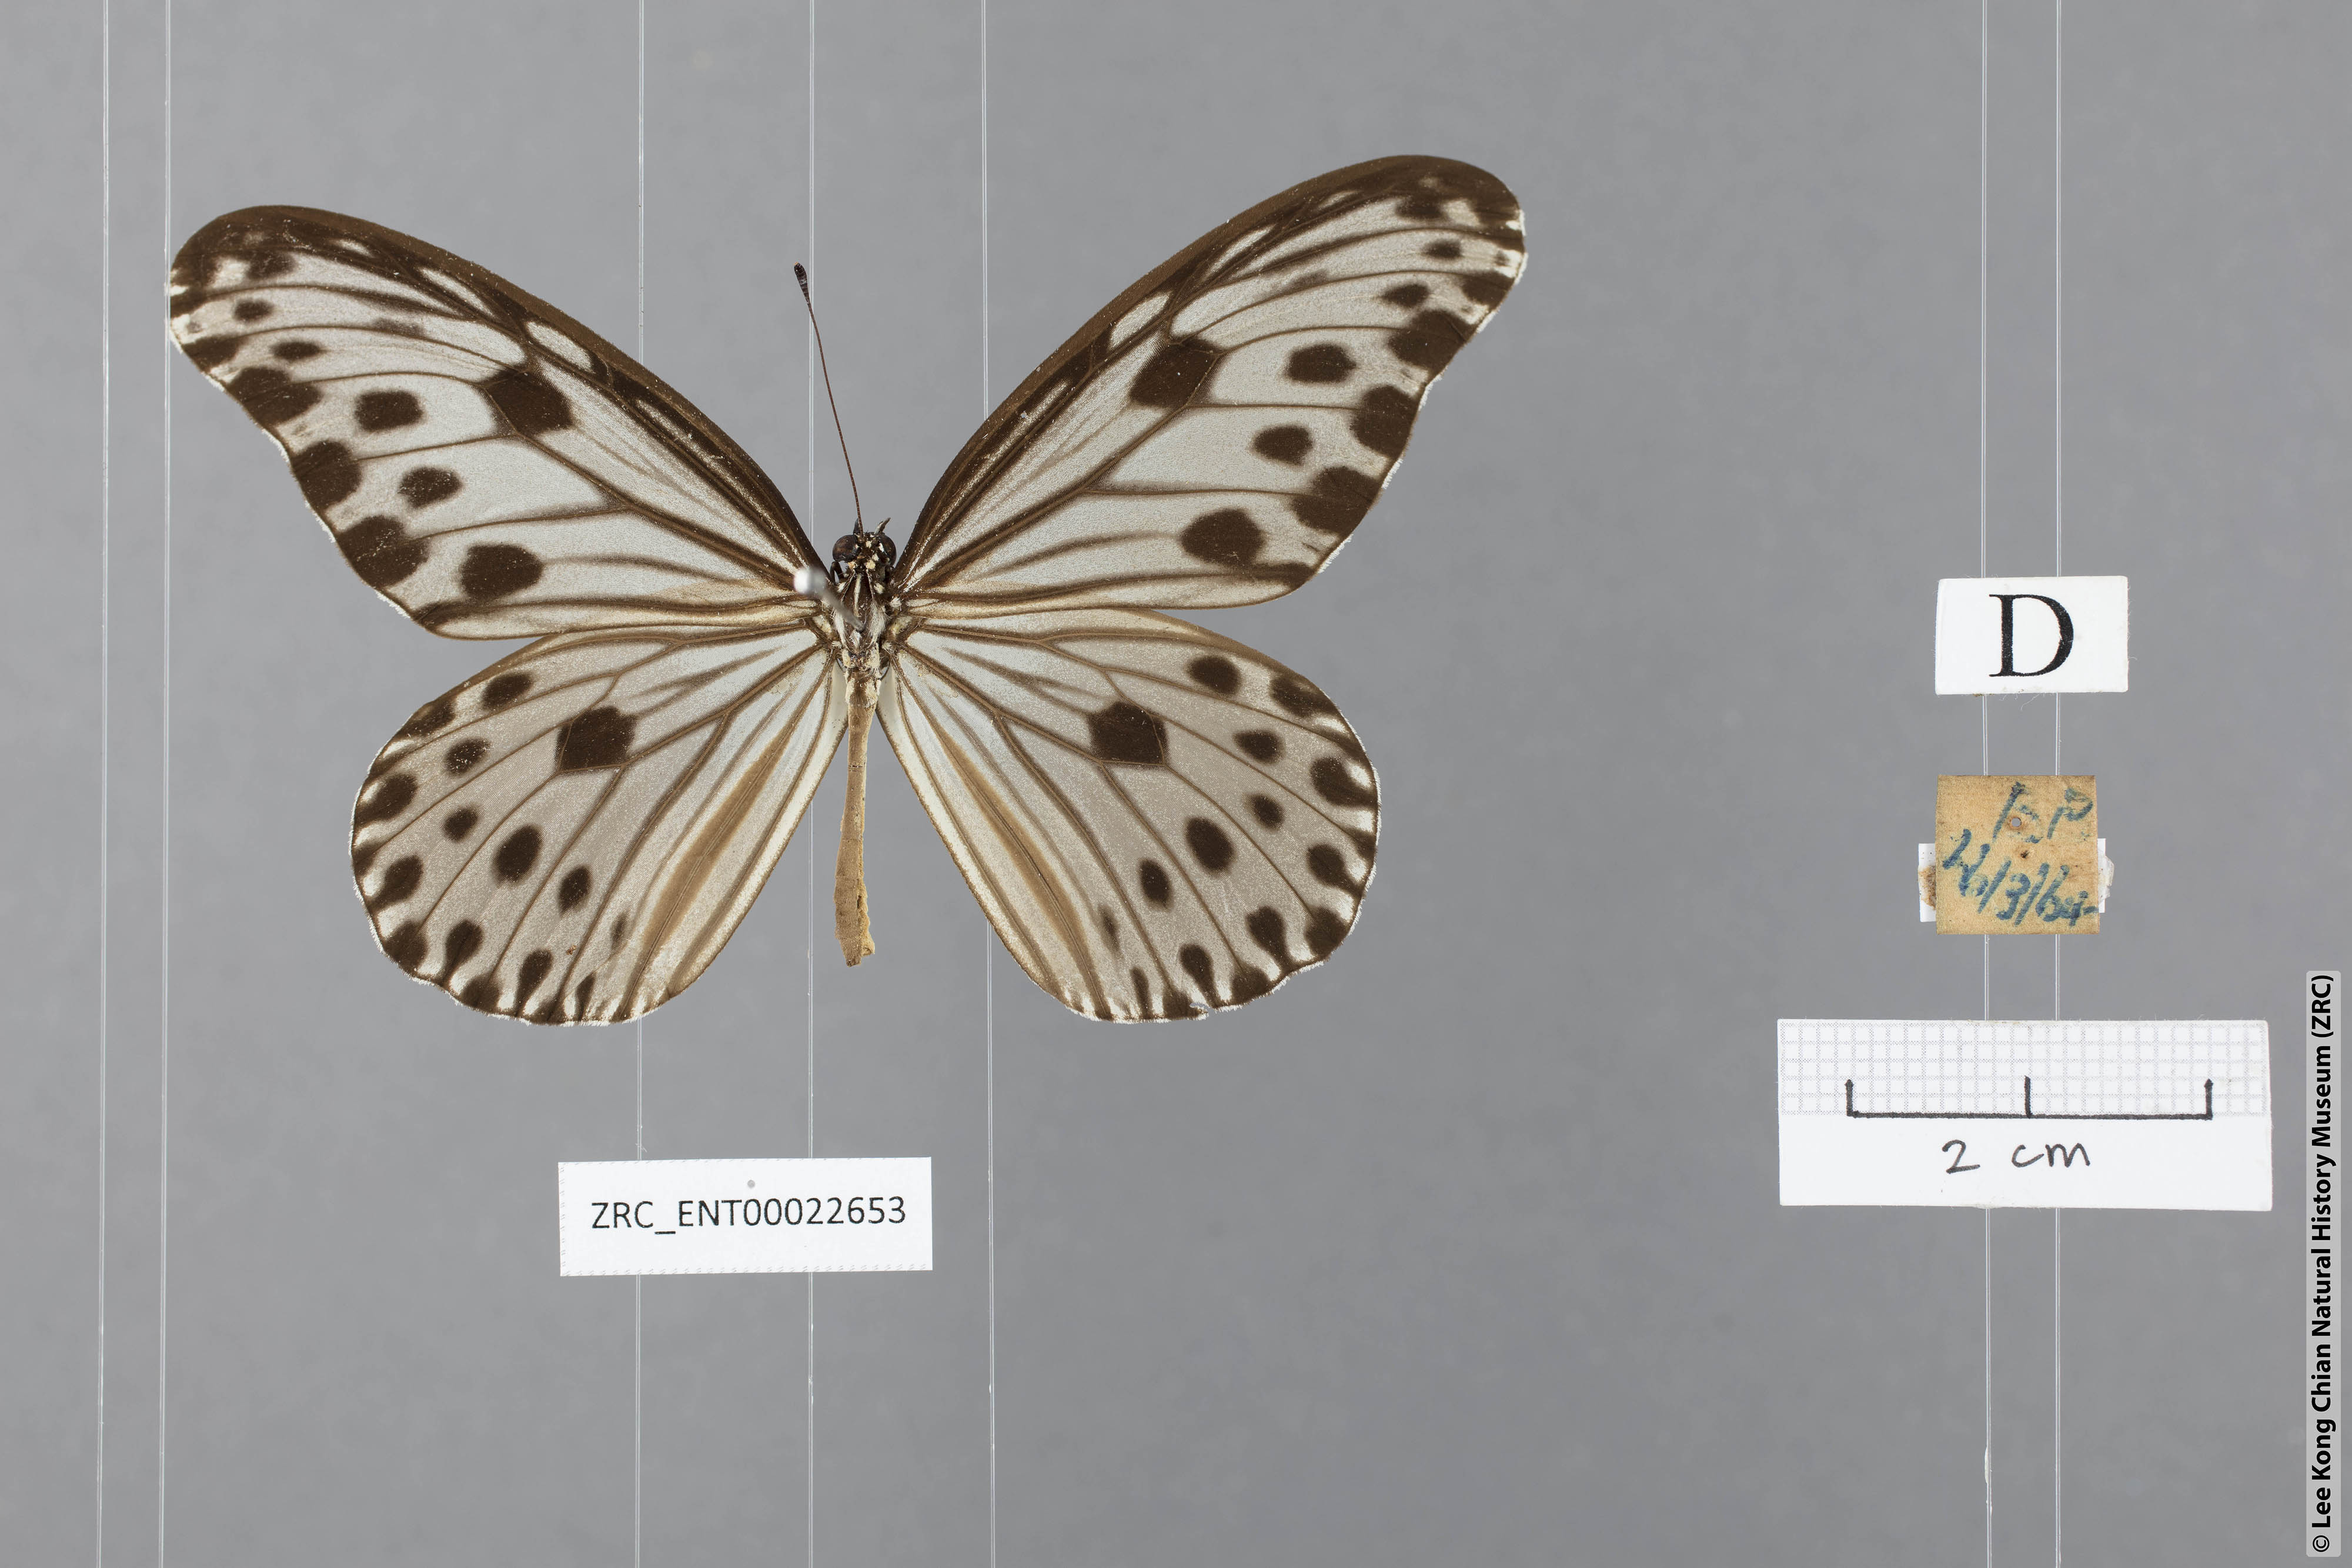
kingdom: Animalia
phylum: Arthropoda
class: Insecta
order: Lepidoptera
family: Nymphalidae
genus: Ideopsis
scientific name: Ideopsis gaura
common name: Smaller wood nymph
